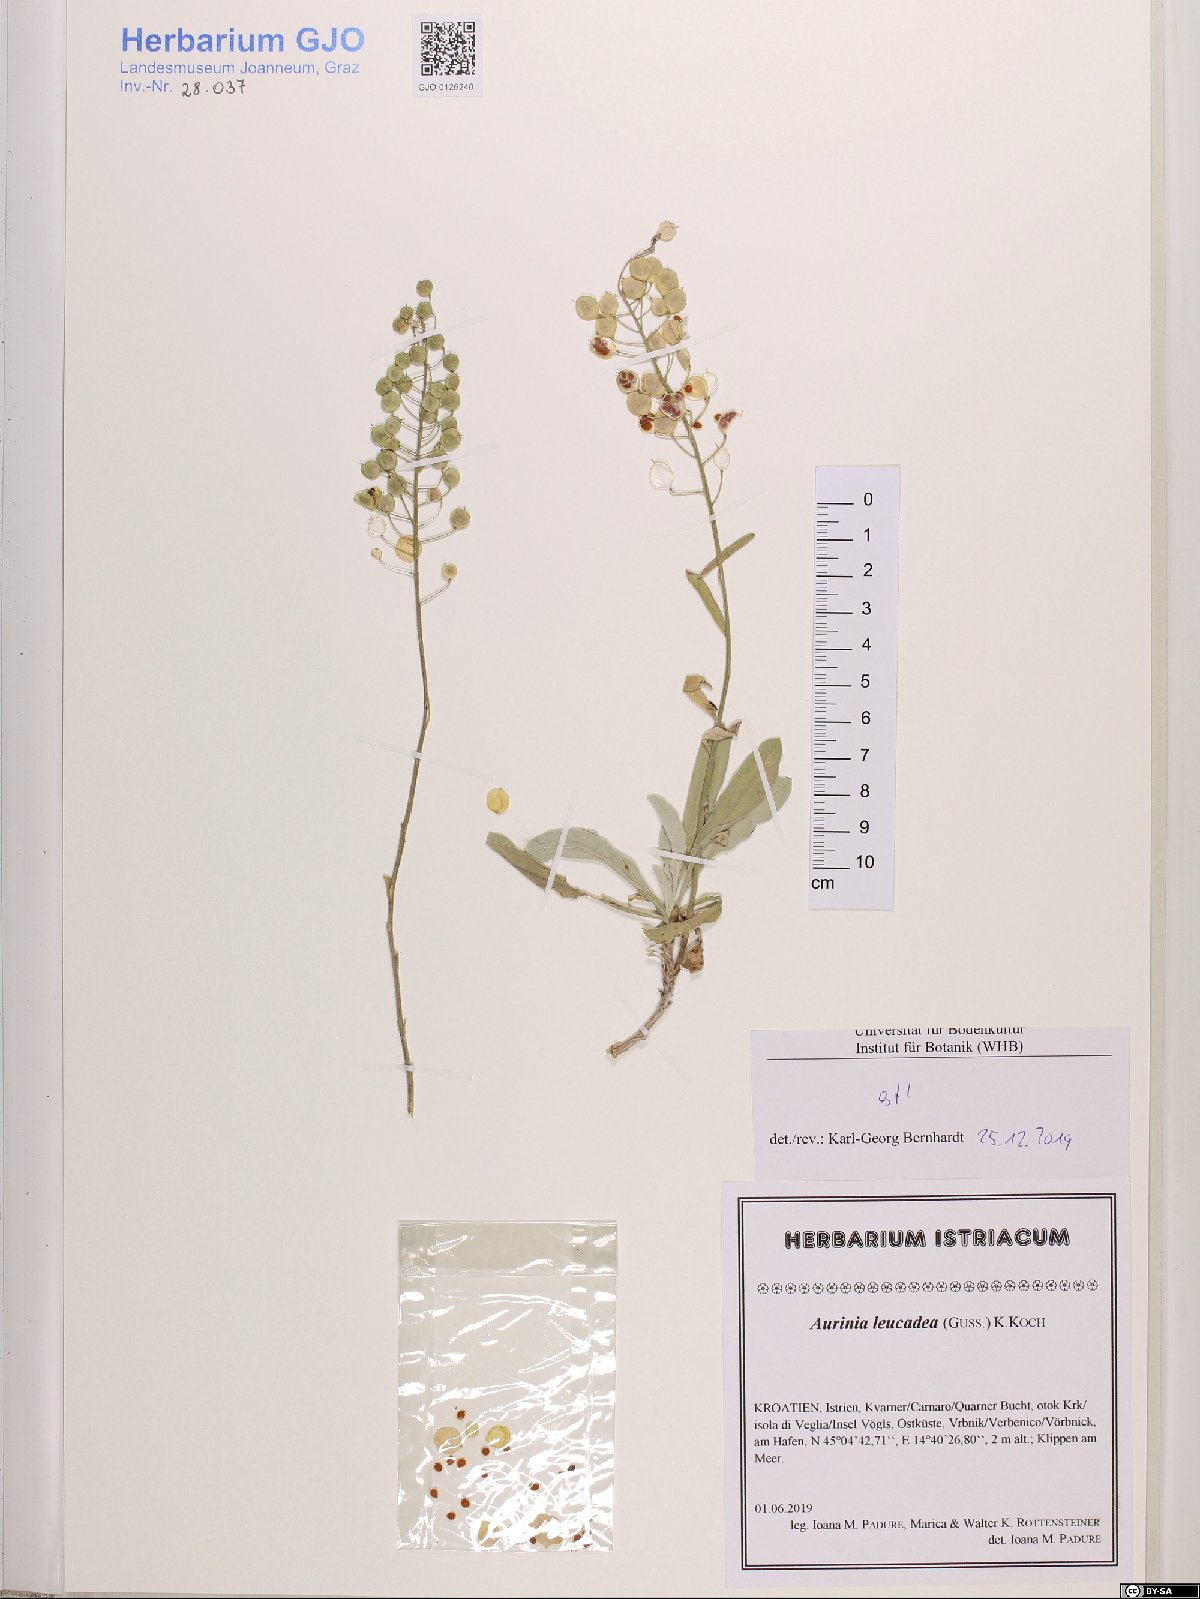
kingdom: Plantae
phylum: Tracheophyta
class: Magnoliopsida
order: Brassicales
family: Brassicaceae
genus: Aurinia
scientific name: Aurinia leucadea
